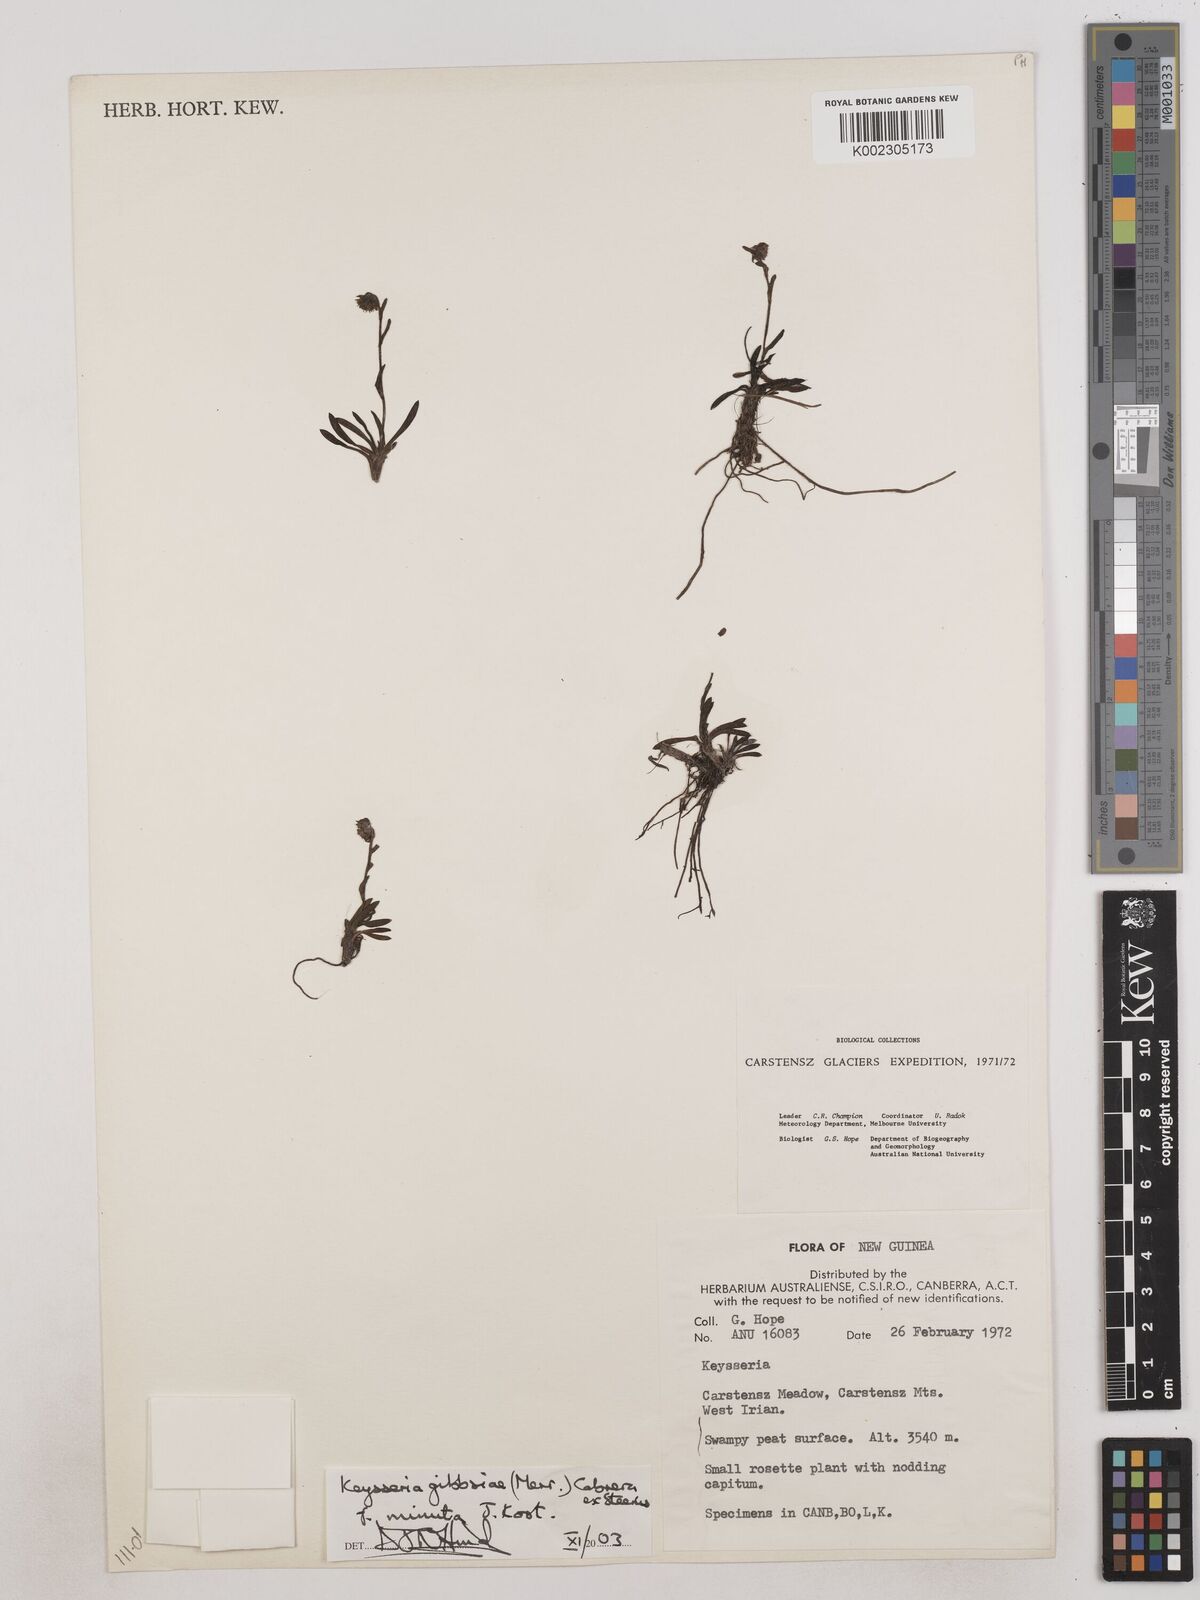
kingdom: Plantae
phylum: Tracheophyta
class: Magnoliopsida
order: Asterales
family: Asteraceae
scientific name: Asteraceae
